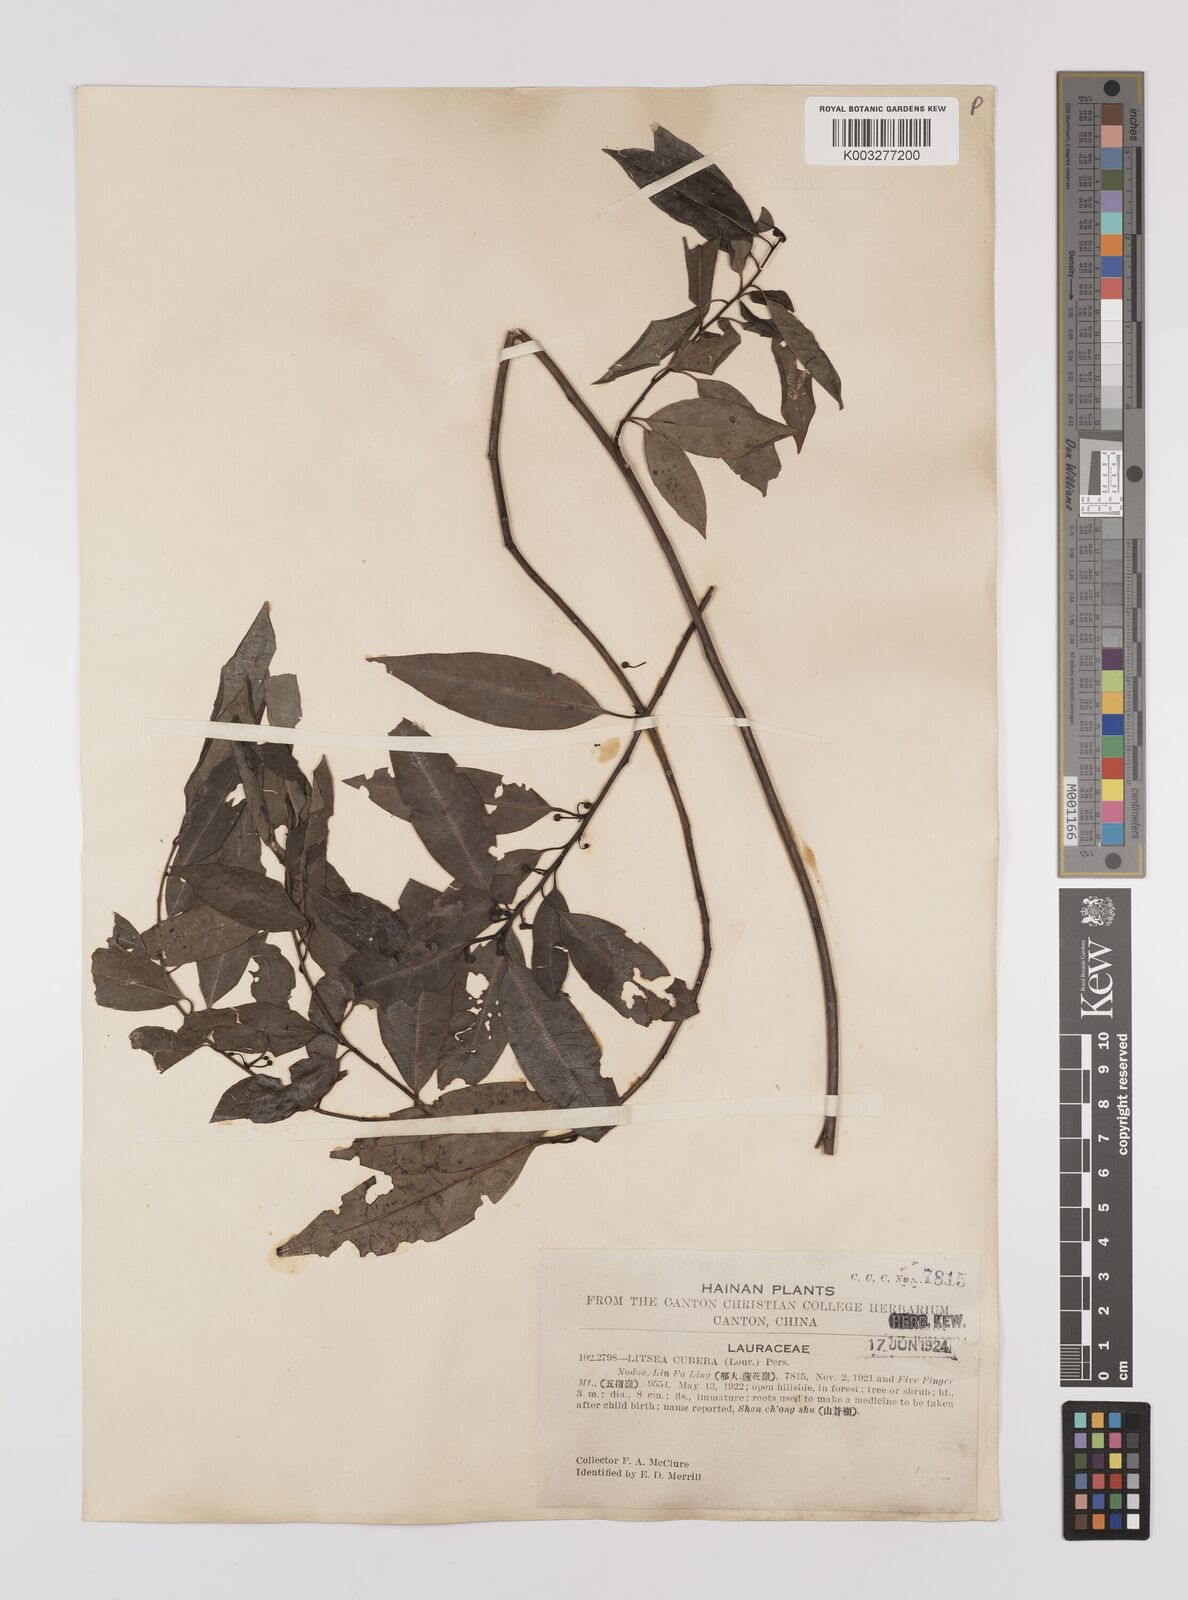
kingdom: Plantae
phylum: Tracheophyta
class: Magnoliopsida
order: Laurales
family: Lauraceae
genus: Litsea
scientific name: Litsea cubeba
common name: Mountain-pepper
